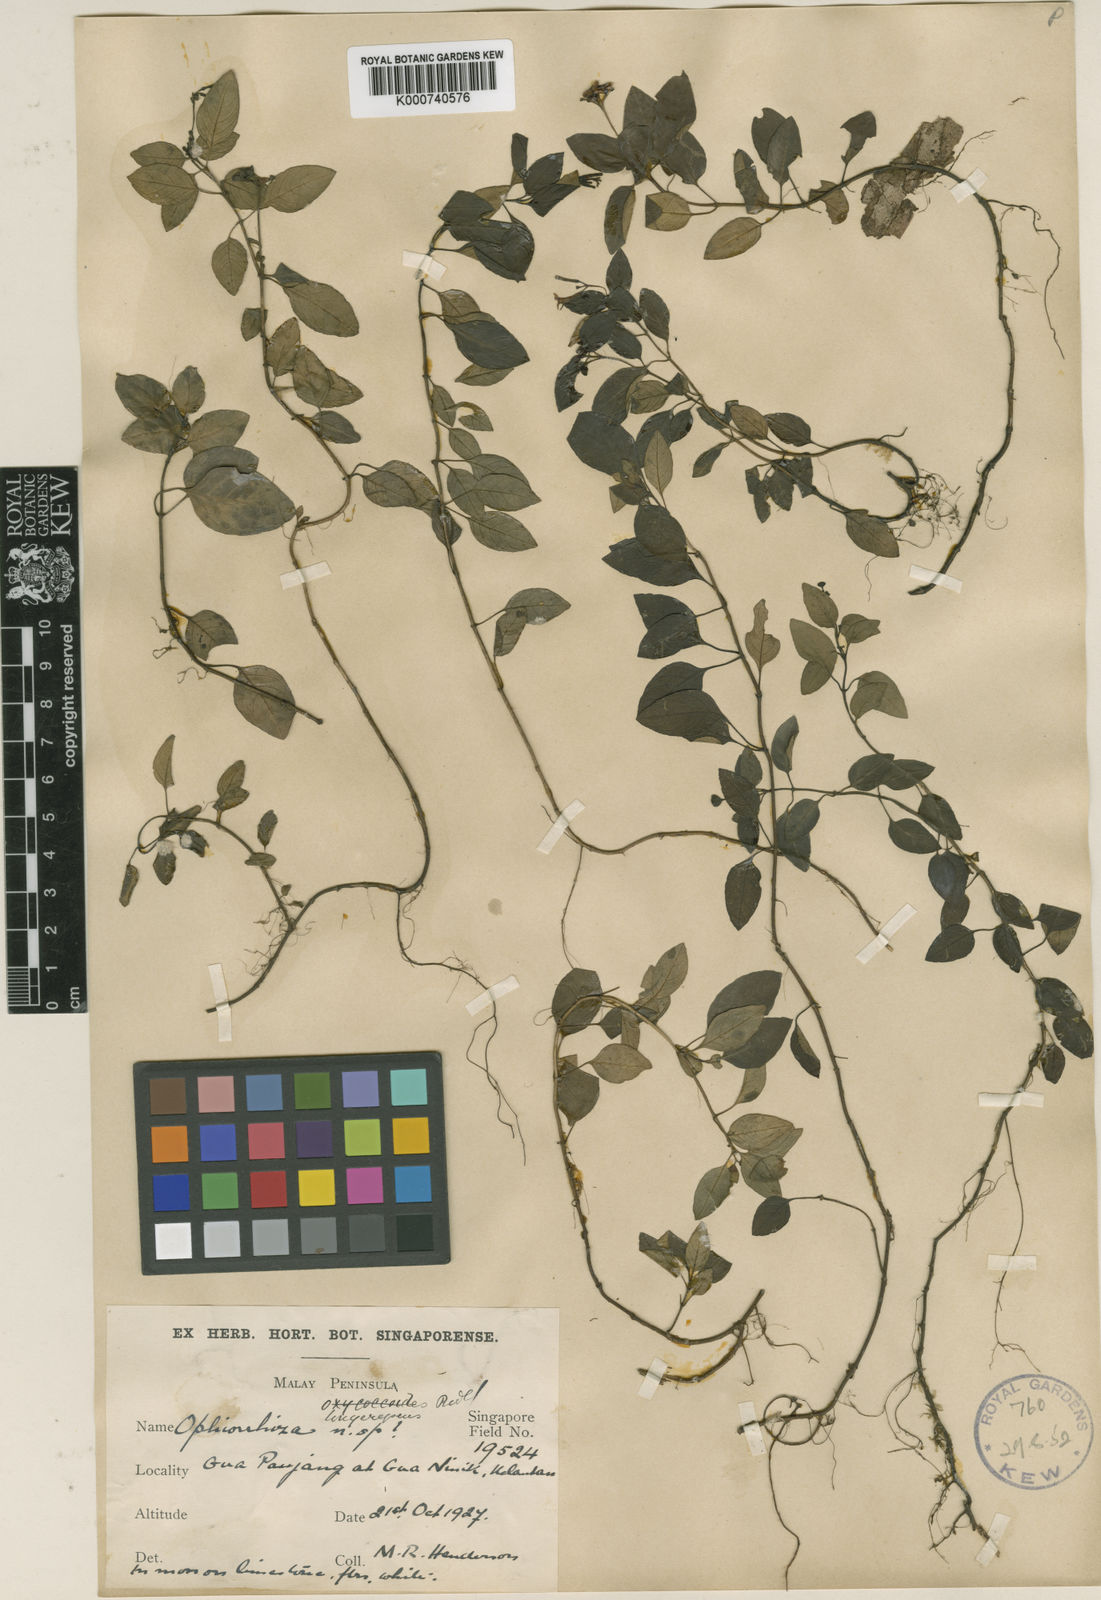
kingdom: Plantae
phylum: Tracheophyta
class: Magnoliopsida
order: Gentianales
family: Rubiaceae
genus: Ophiorrhiza
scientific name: Ophiorrhiza
